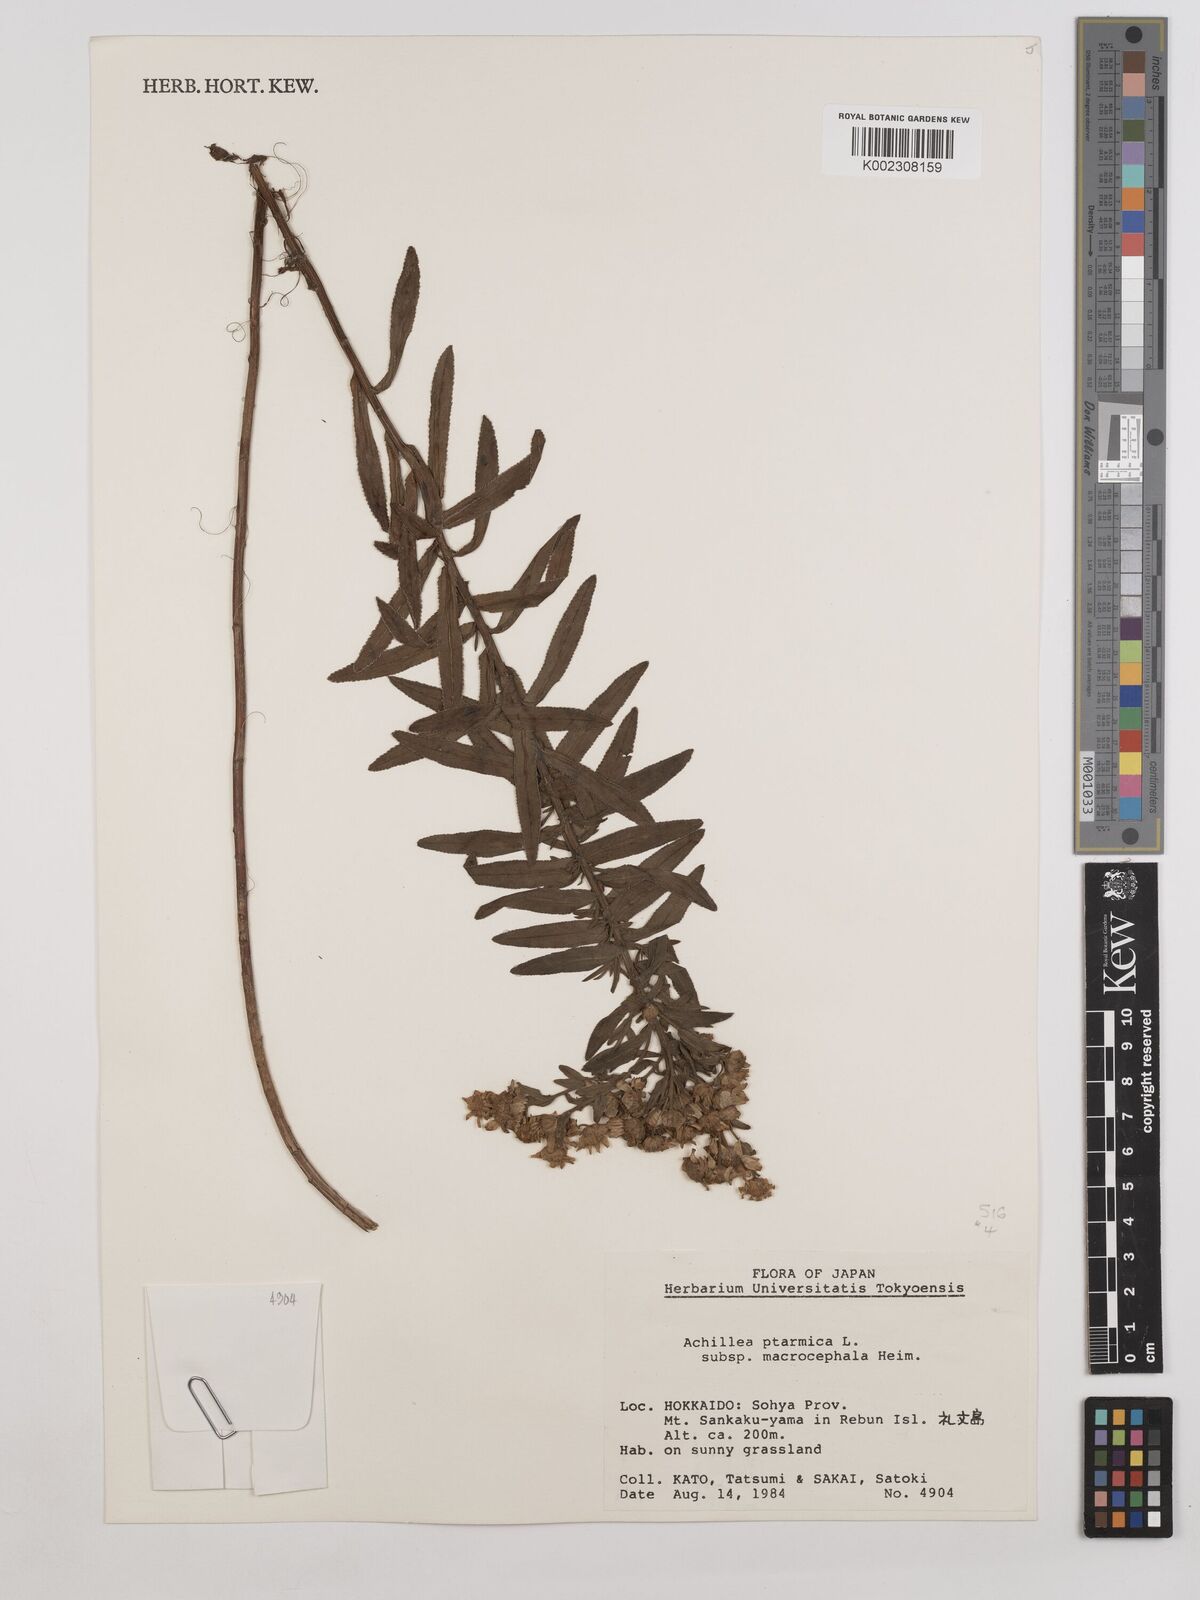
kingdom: Plantae
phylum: Tracheophyta
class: Magnoliopsida
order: Asterales
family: Asteraceae
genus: Achillea
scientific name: Achillea ptarmica
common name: Sneezeweed
